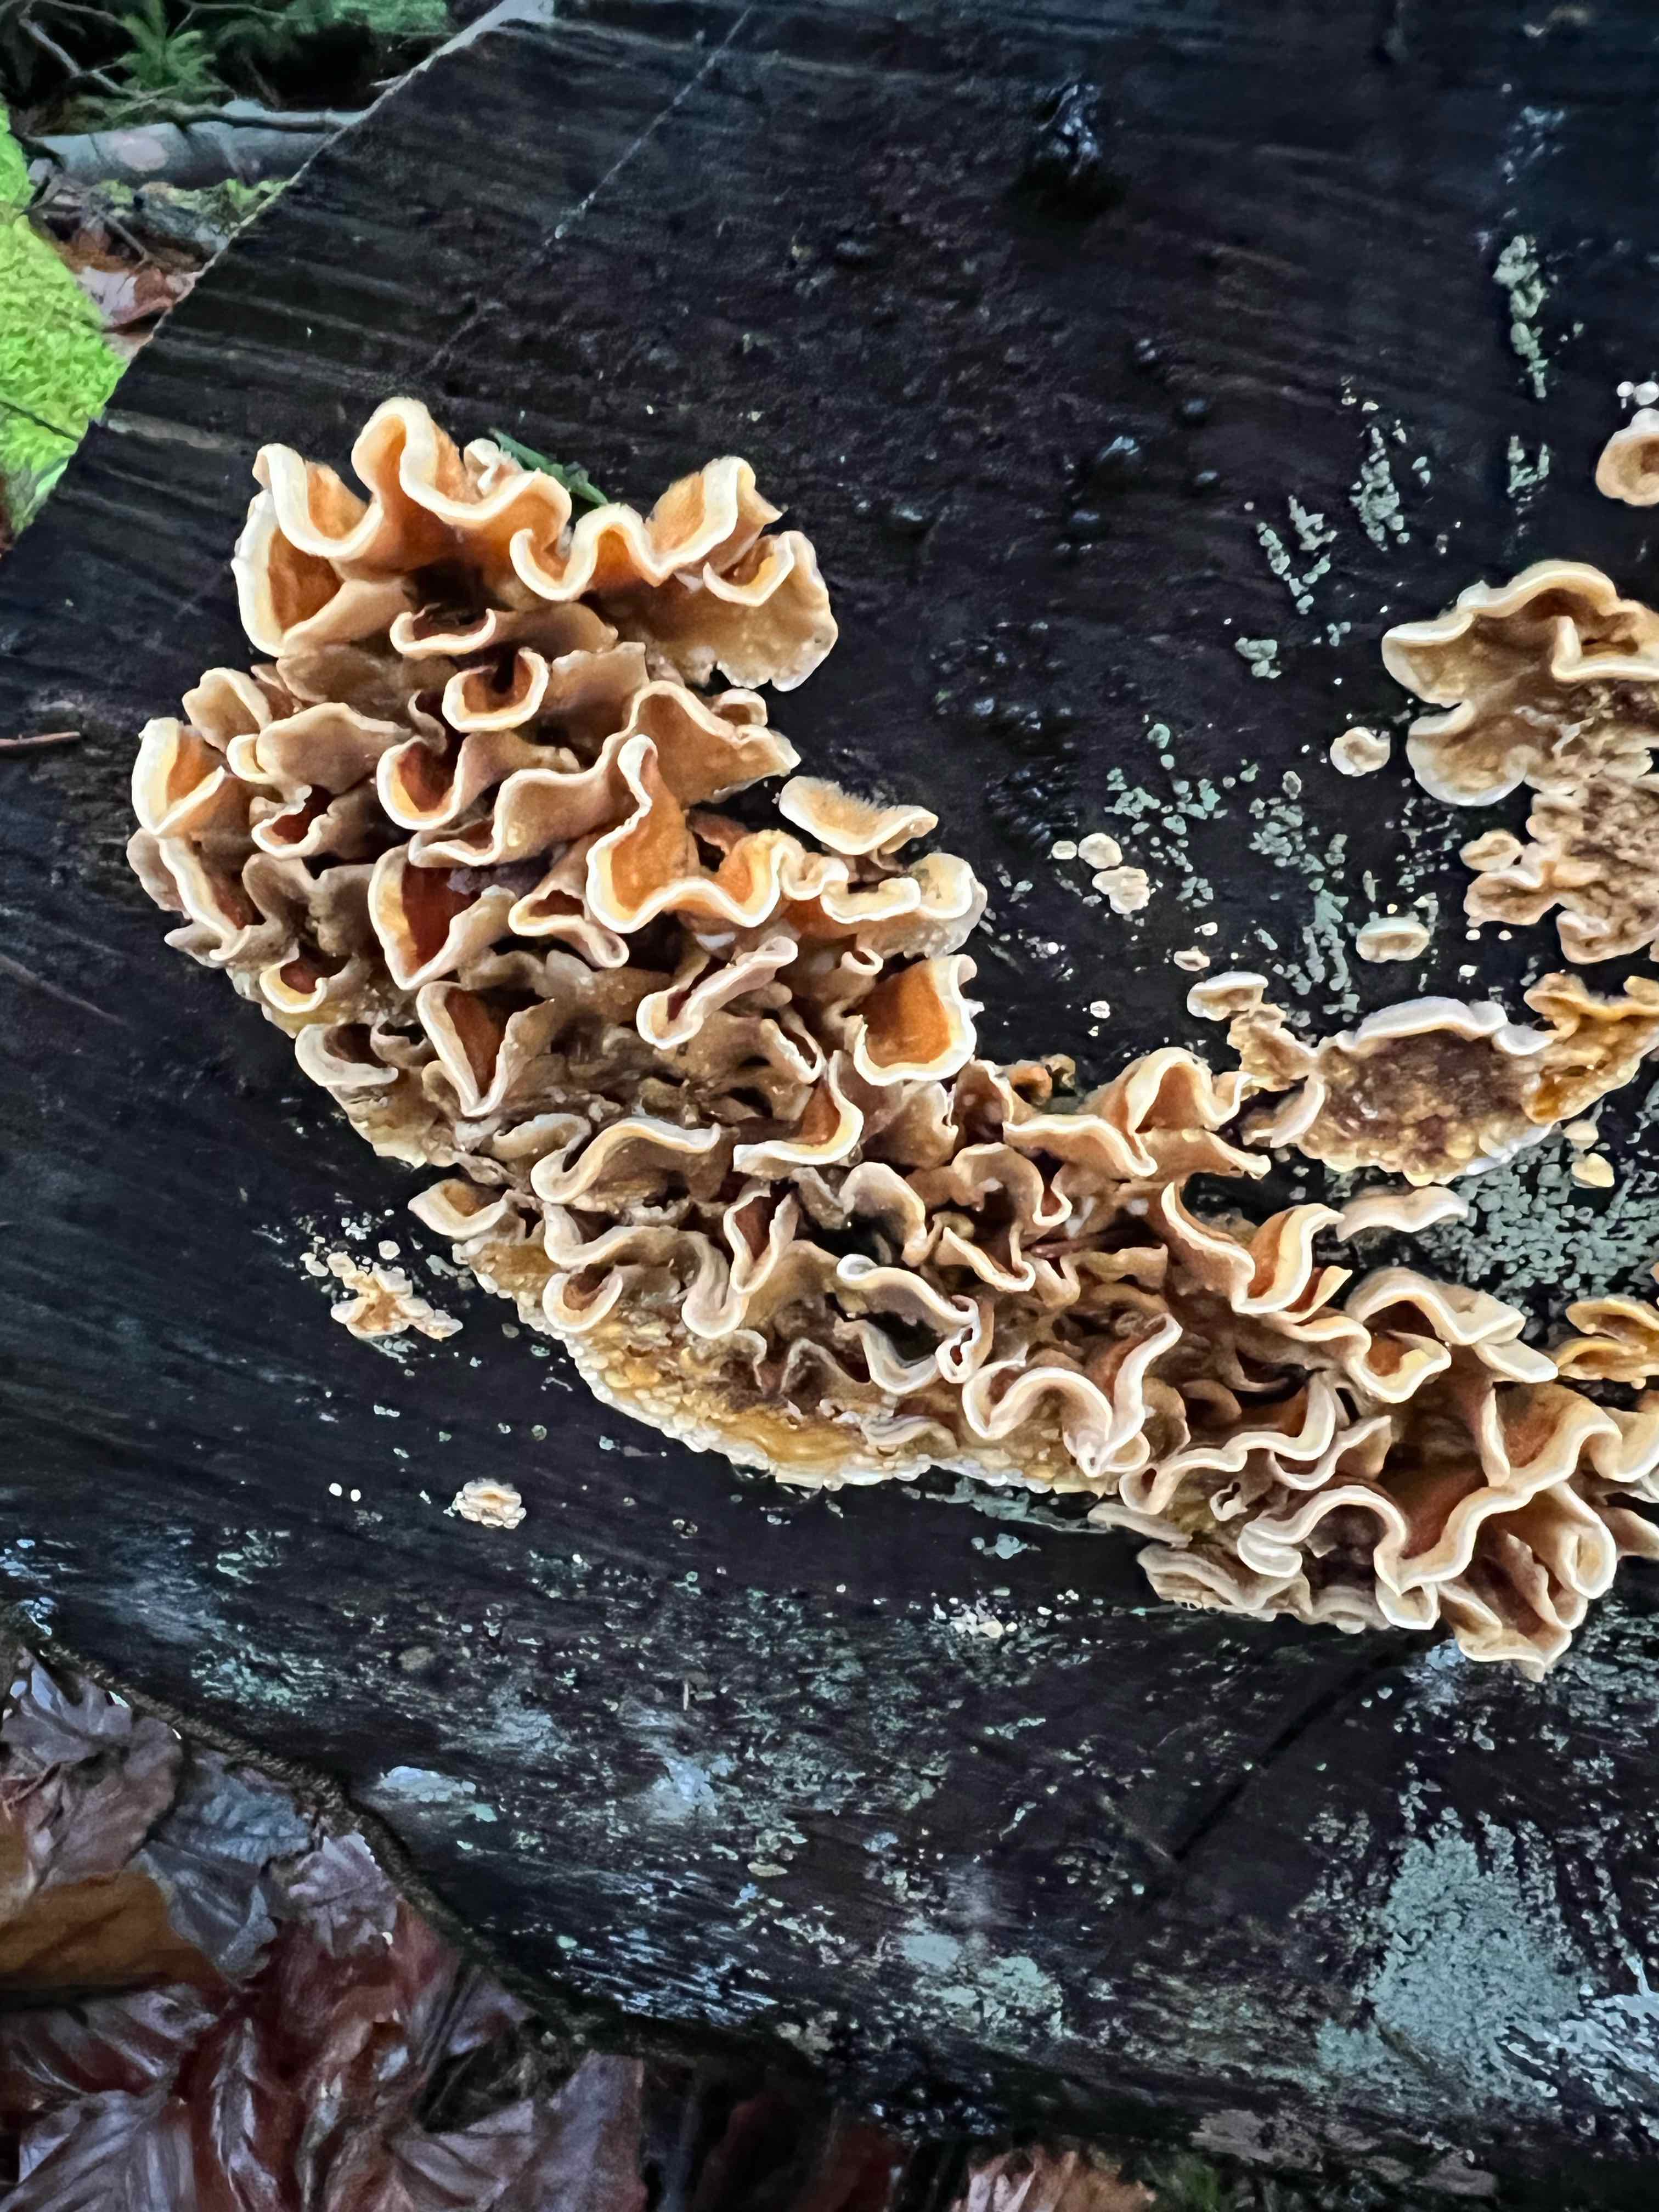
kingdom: Fungi
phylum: Basidiomycota
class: Agaricomycetes
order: Russulales
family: Stereaceae
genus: Stereum
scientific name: Stereum hirsutum
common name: håret lædersvamp
